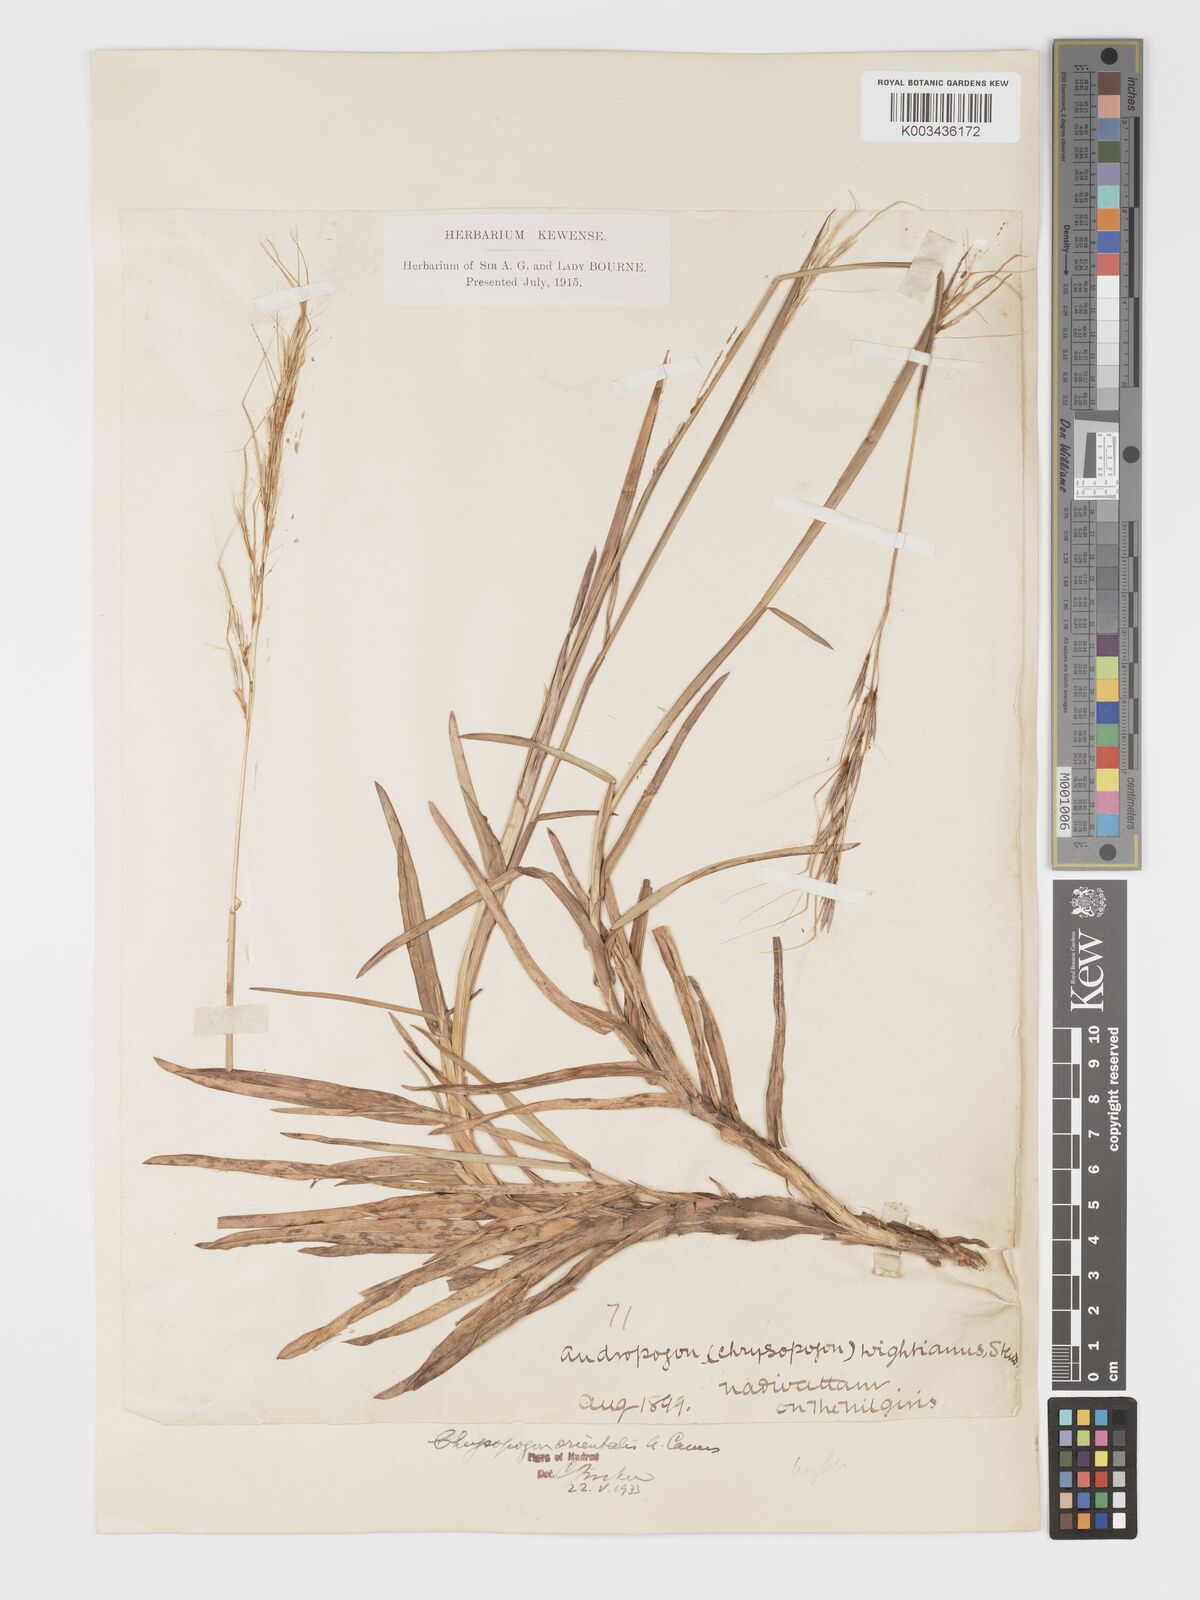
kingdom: Plantae
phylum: Tracheophyta
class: Liliopsida
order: Poales
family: Poaceae
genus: Chrysopogon
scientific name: Chrysopogon orientalis
